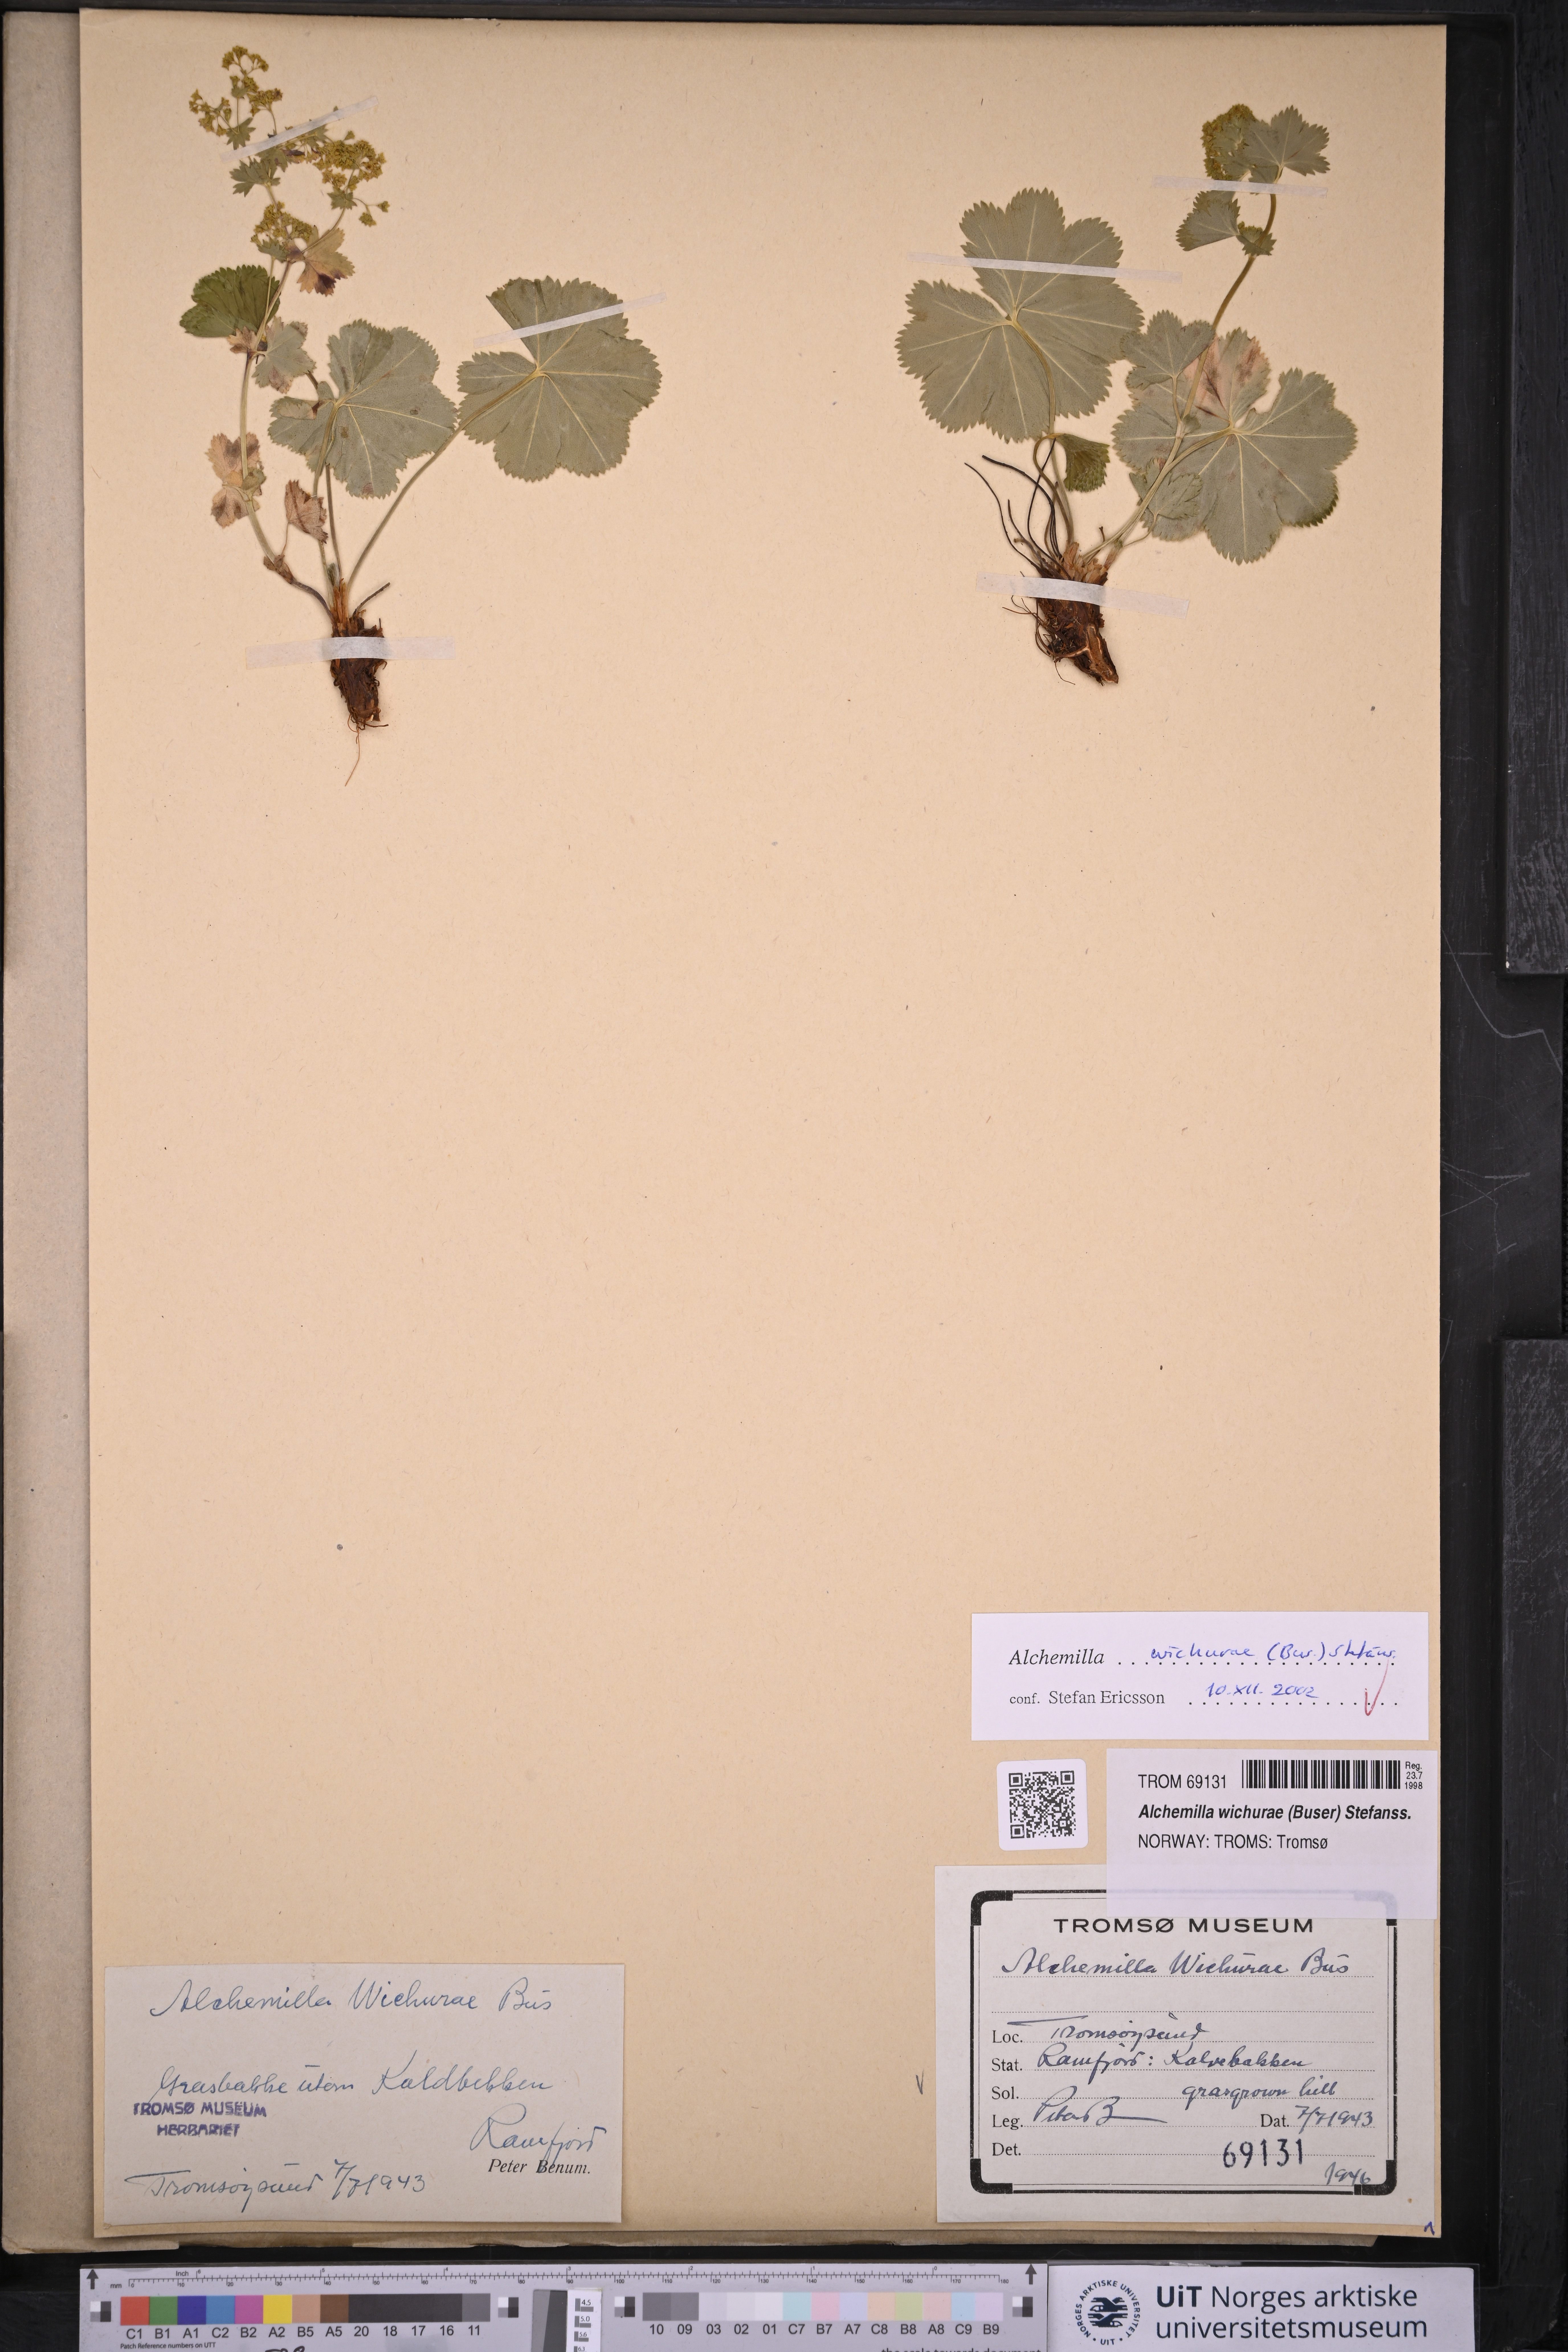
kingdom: Plantae
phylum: Tracheophyta
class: Magnoliopsida
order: Rosales
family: Rosaceae
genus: Alchemilla
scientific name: Alchemilla wichurae
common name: Rock lady's mantle
